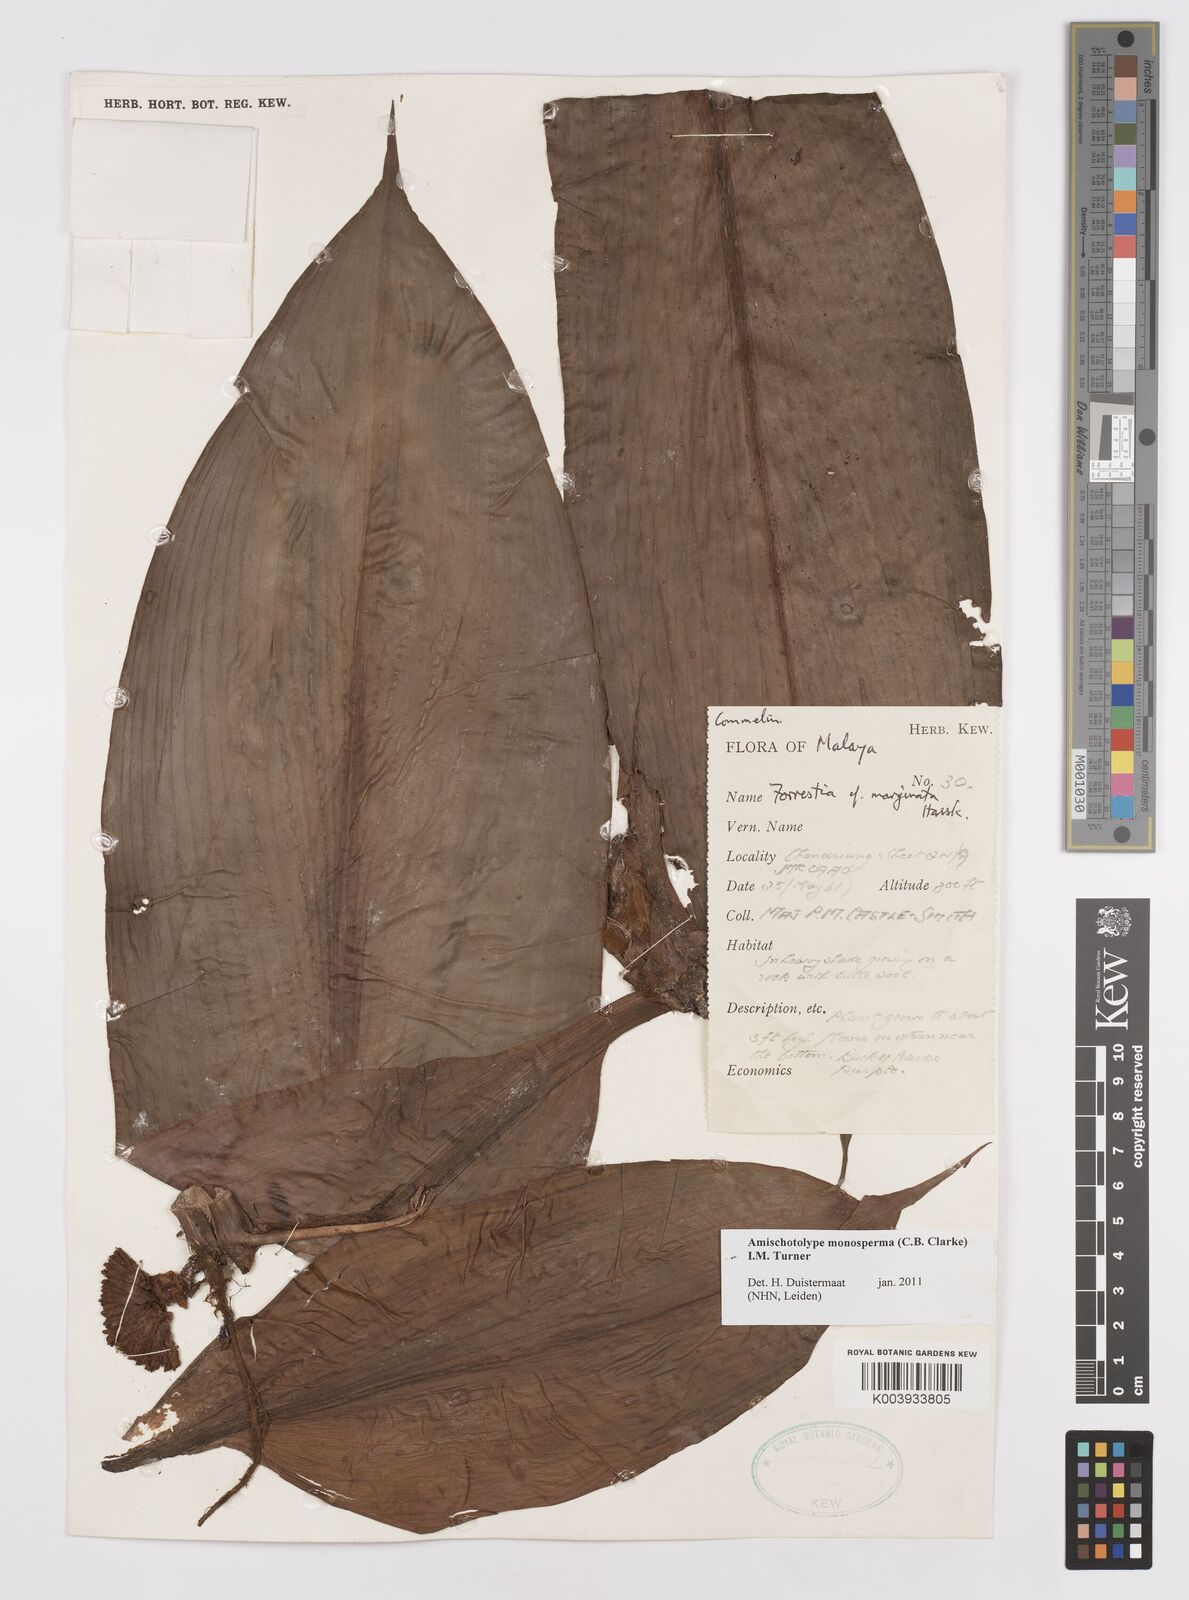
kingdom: Plantae
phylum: Tracheophyta
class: Liliopsida
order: Commelinales
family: Commelinaceae
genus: Amischotolype
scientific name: Amischotolype monosperma
